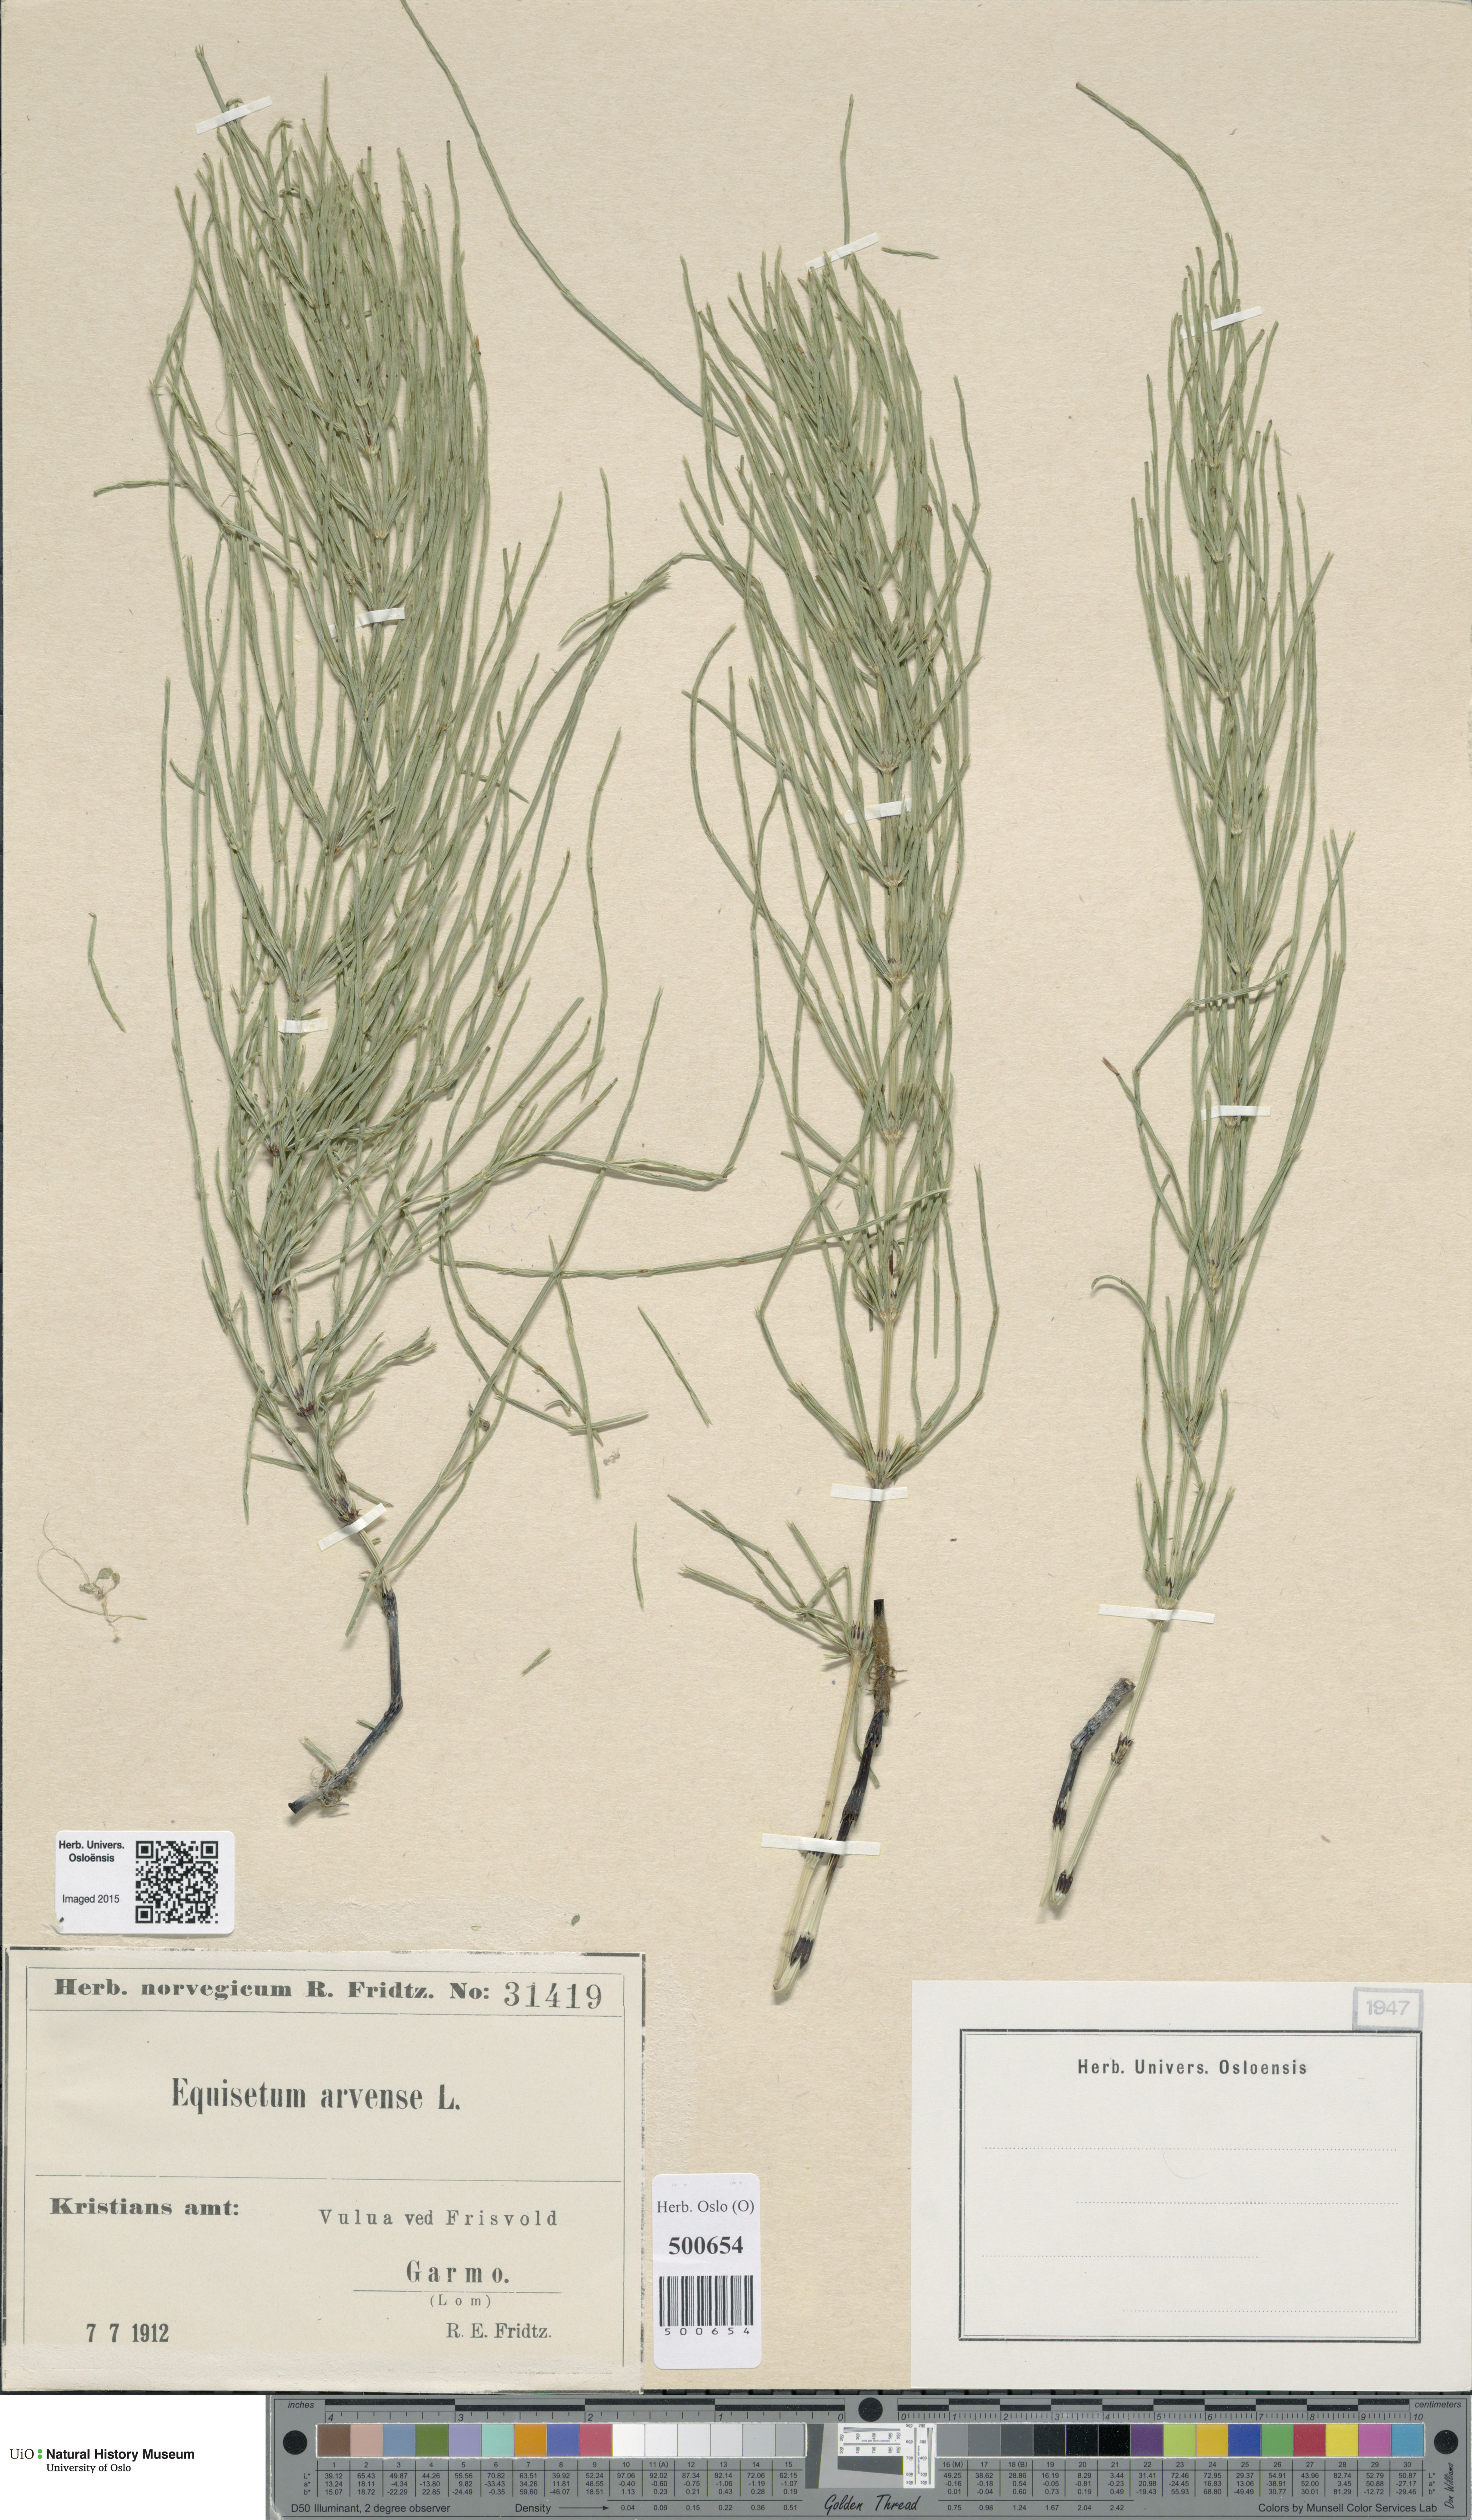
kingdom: Plantae
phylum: Tracheophyta
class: Polypodiopsida
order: Equisetales
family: Equisetaceae
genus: Equisetum
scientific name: Equisetum arvense
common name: Field horsetail
